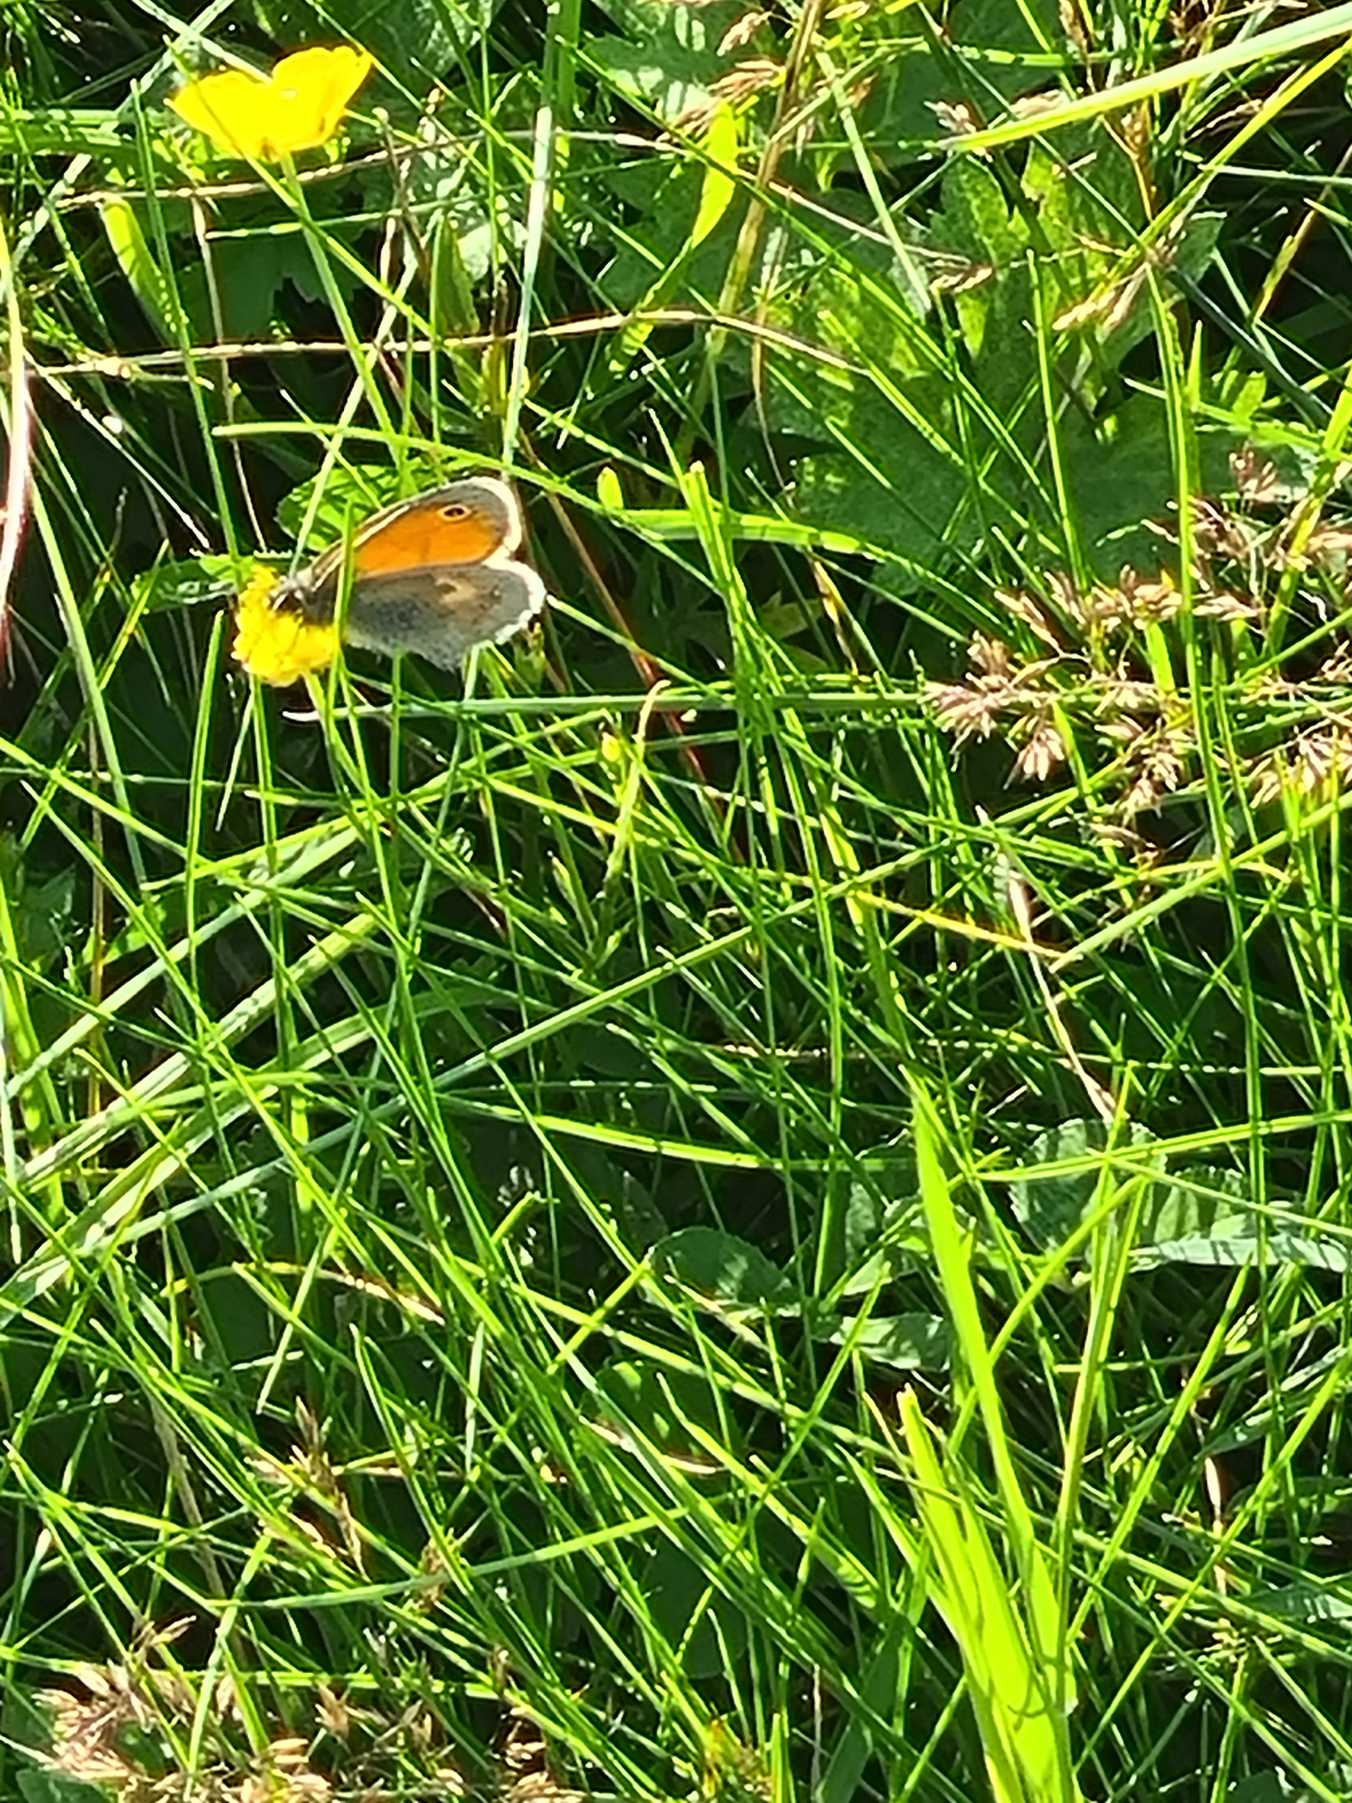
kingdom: Animalia
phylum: Arthropoda
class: Insecta
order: Lepidoptera
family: Nymphalidae
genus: Coenonympha
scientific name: Coenonympha pamphilus
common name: Okkergul randøje
